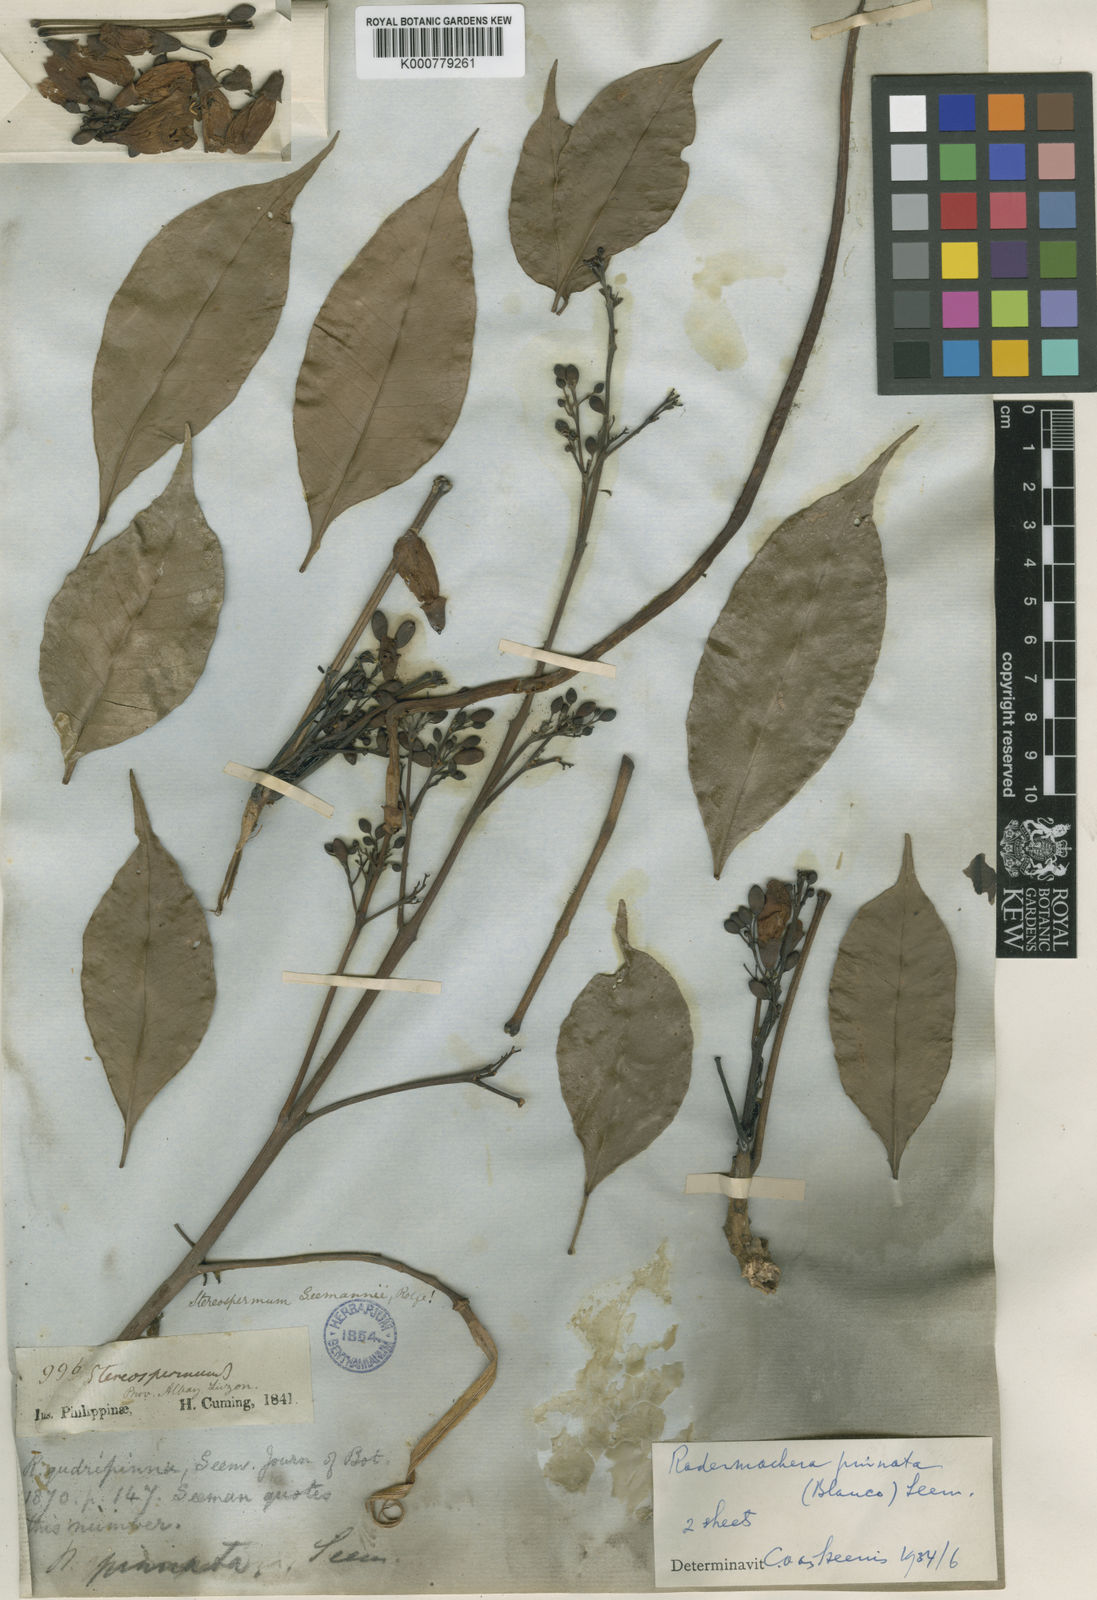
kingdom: Plantae
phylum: Tracheophyta
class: Magnoliopsida
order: Lamiales
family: Bignoniaceae
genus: Radermachera
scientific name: Radermachera
